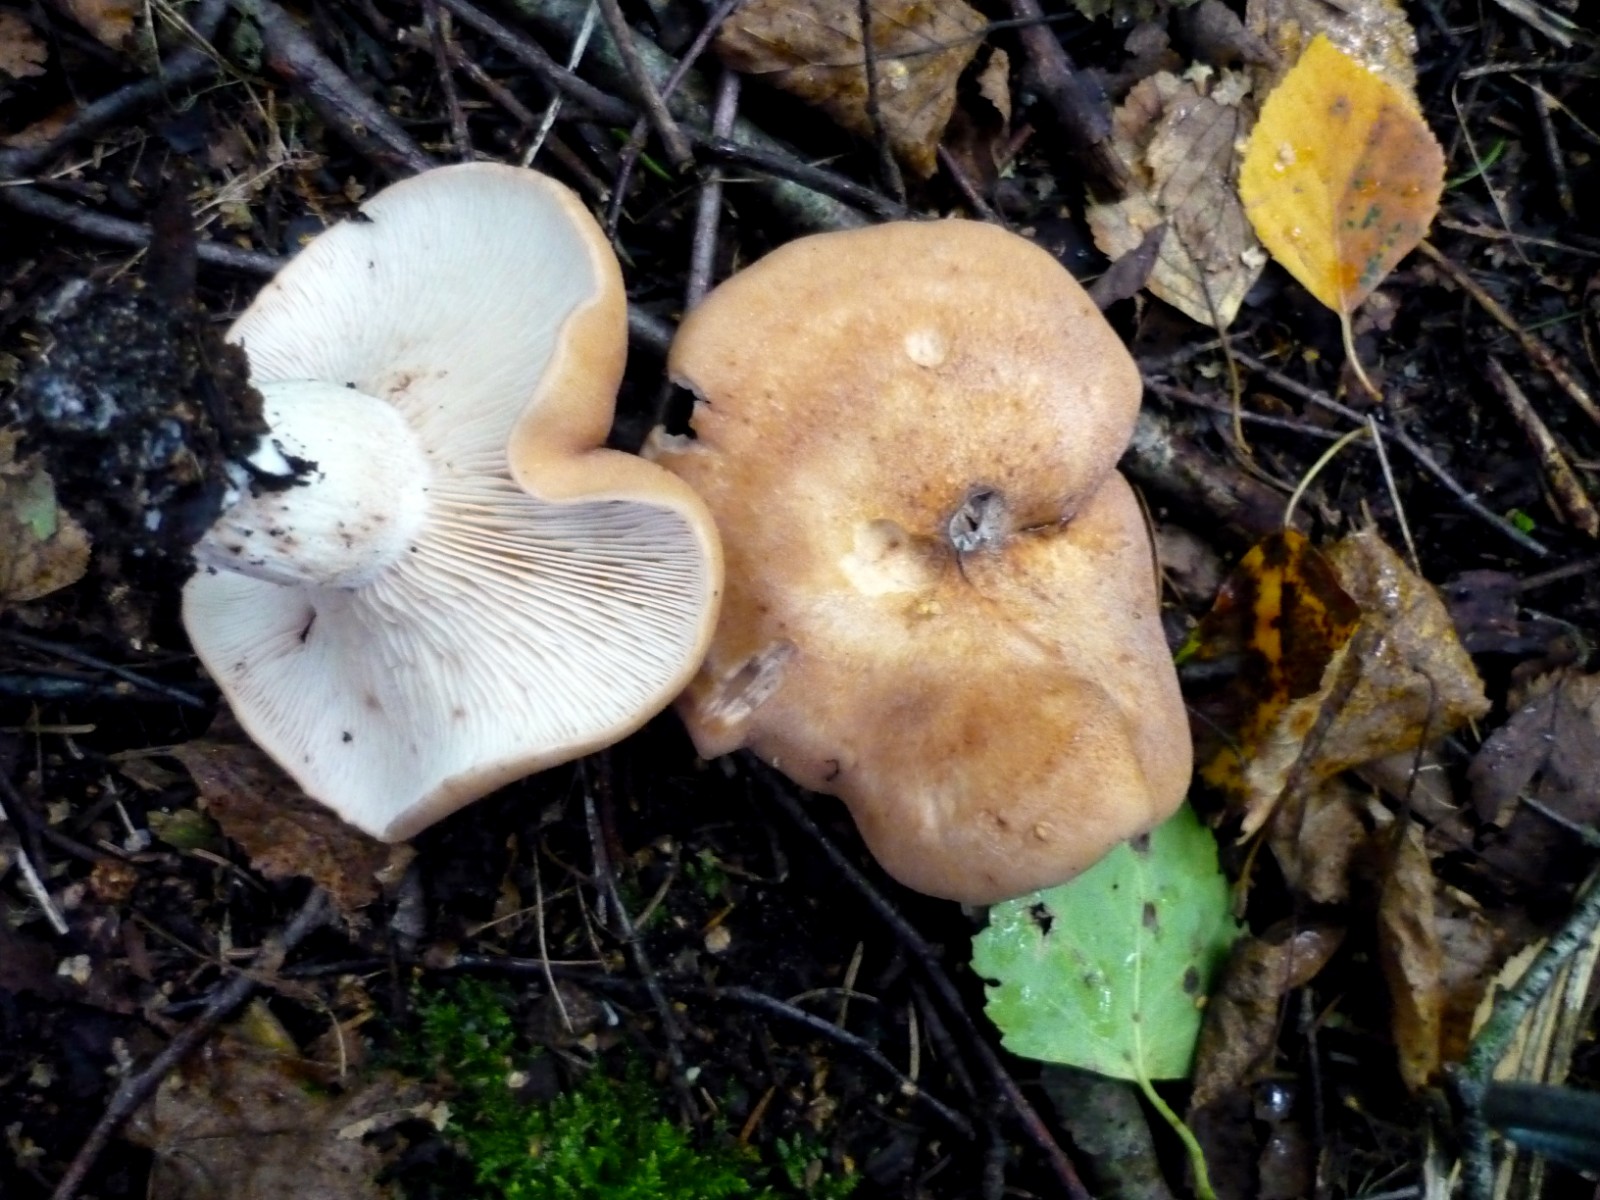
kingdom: Fungi
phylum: Basidiomycota
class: Agaricomycetes
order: Agaricales
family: Entolomataceae
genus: Clitopilus
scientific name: Clitopilus geminus
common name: kødfarvet troldhat
